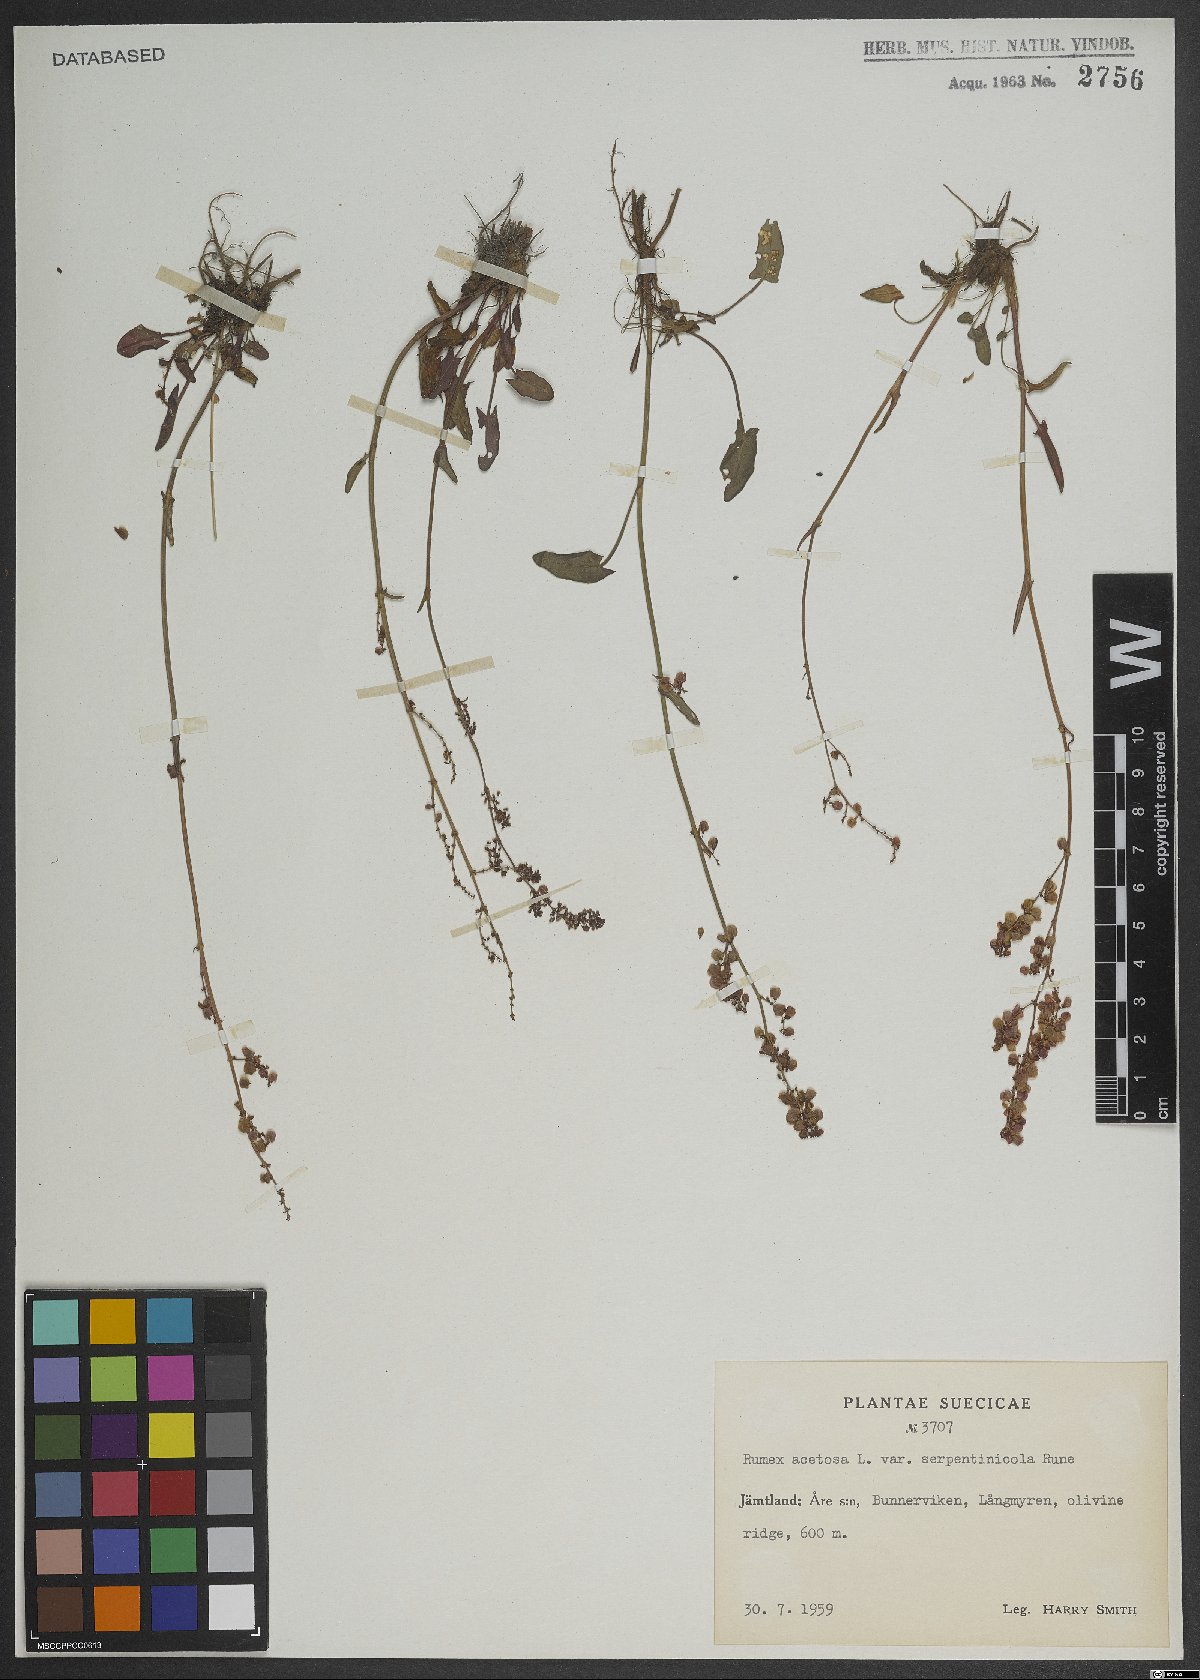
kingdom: Plantae
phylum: Tracheophyta
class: Magnoliopsida
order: Caryophyllales
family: Polygonaceae
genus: Rumex
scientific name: Rumex acetosa
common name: Garden sorrel
